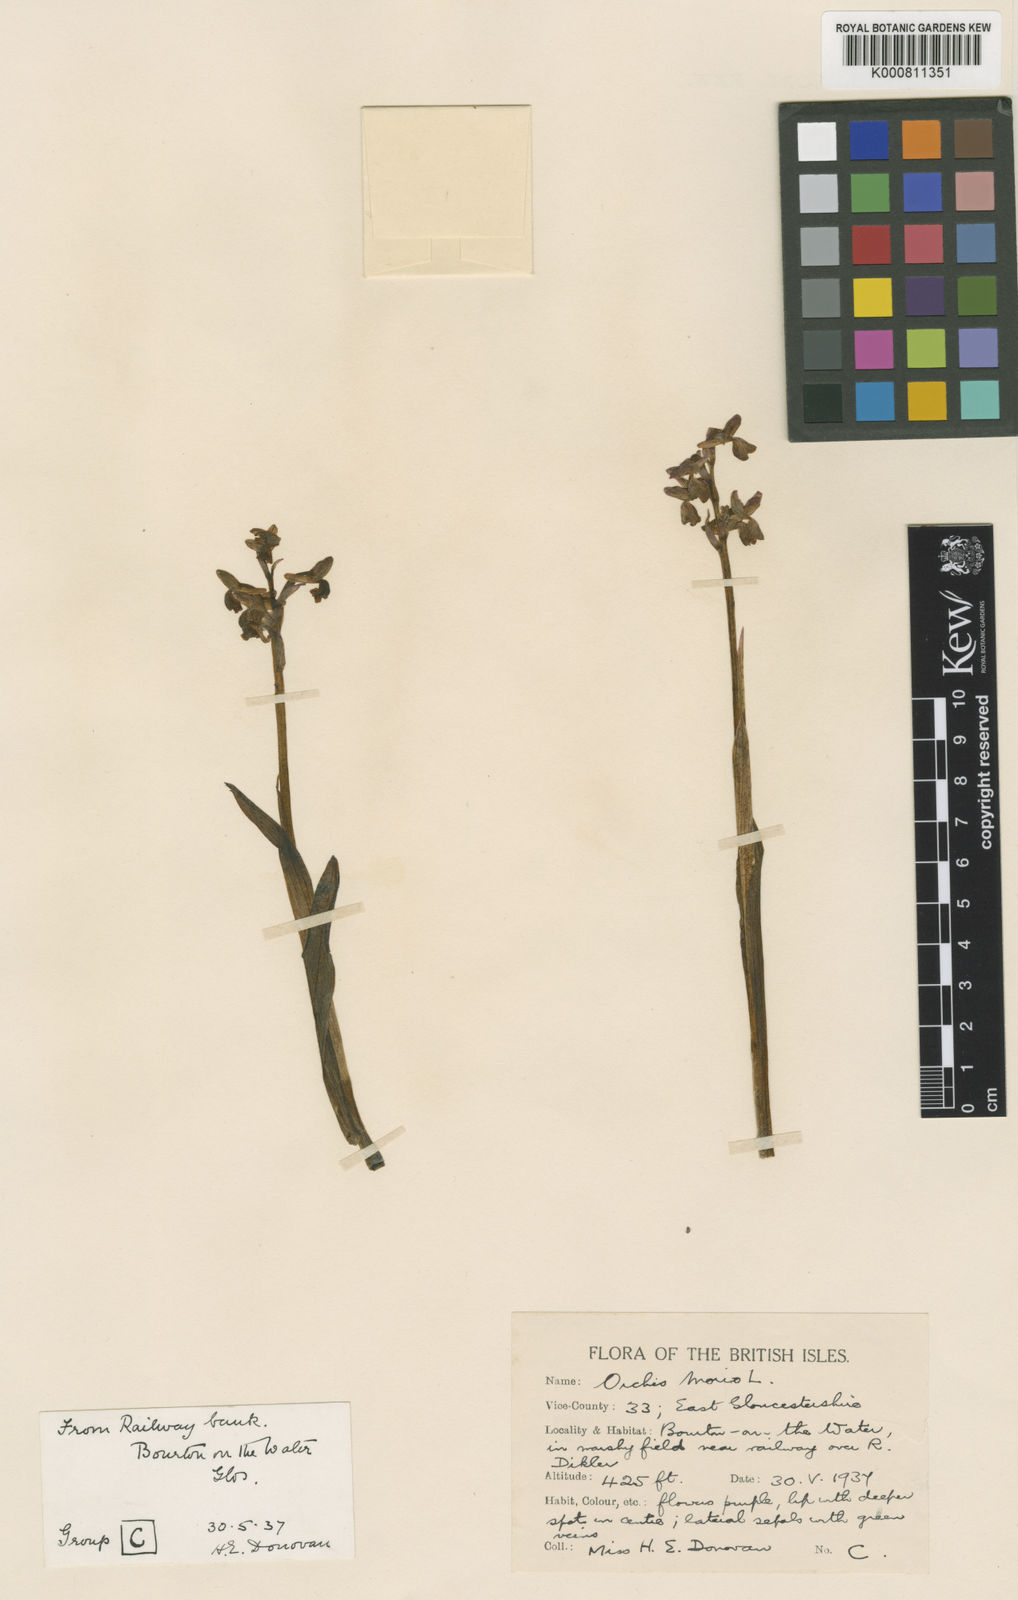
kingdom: Plantae
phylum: Tracheophyta
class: Liliopsida
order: Asparagales
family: Orchidaceae
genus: Anacamptis
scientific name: Anacamptis morio
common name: Green-winged orchid
